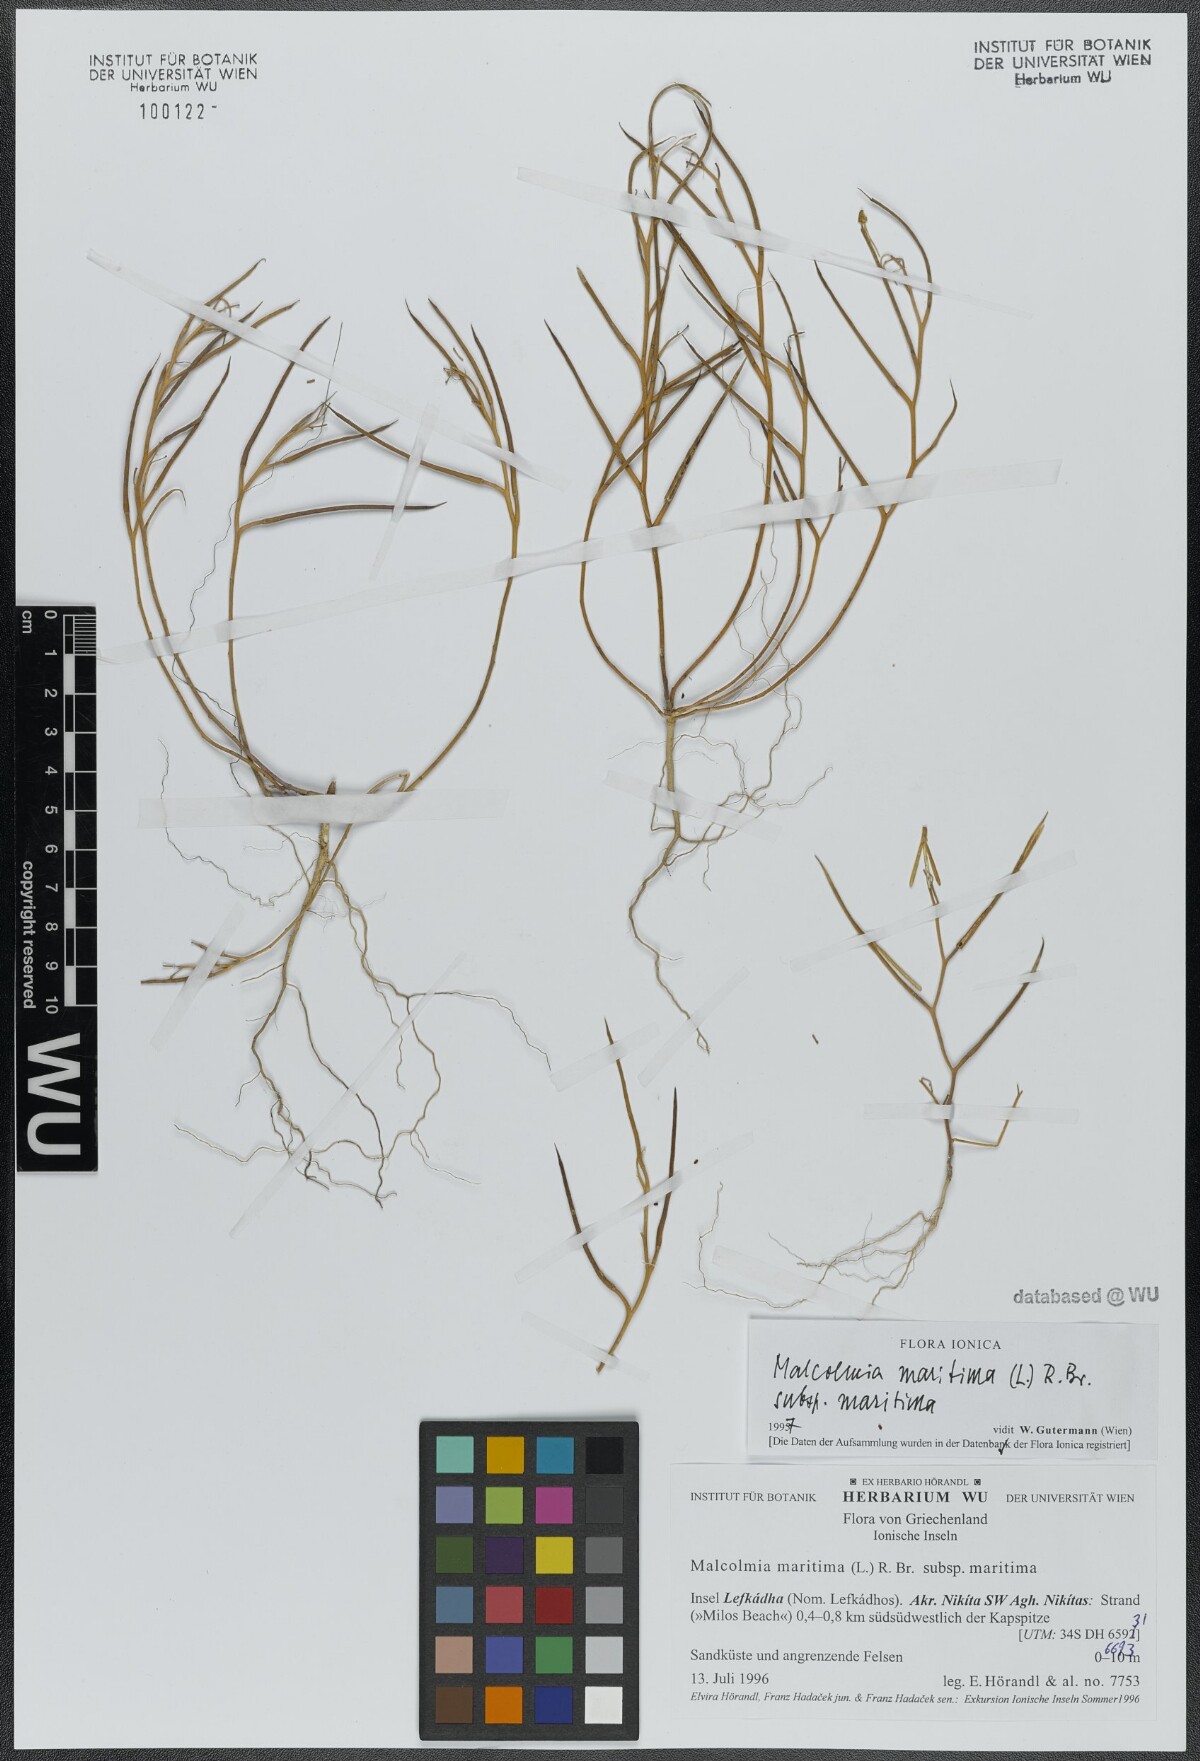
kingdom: Plantae
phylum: Tracheophyta
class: Magnoliopsida
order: Brassicales
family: Brassicaceae
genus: Malcolmia
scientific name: Malcolmia maritima
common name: Virginia stock
